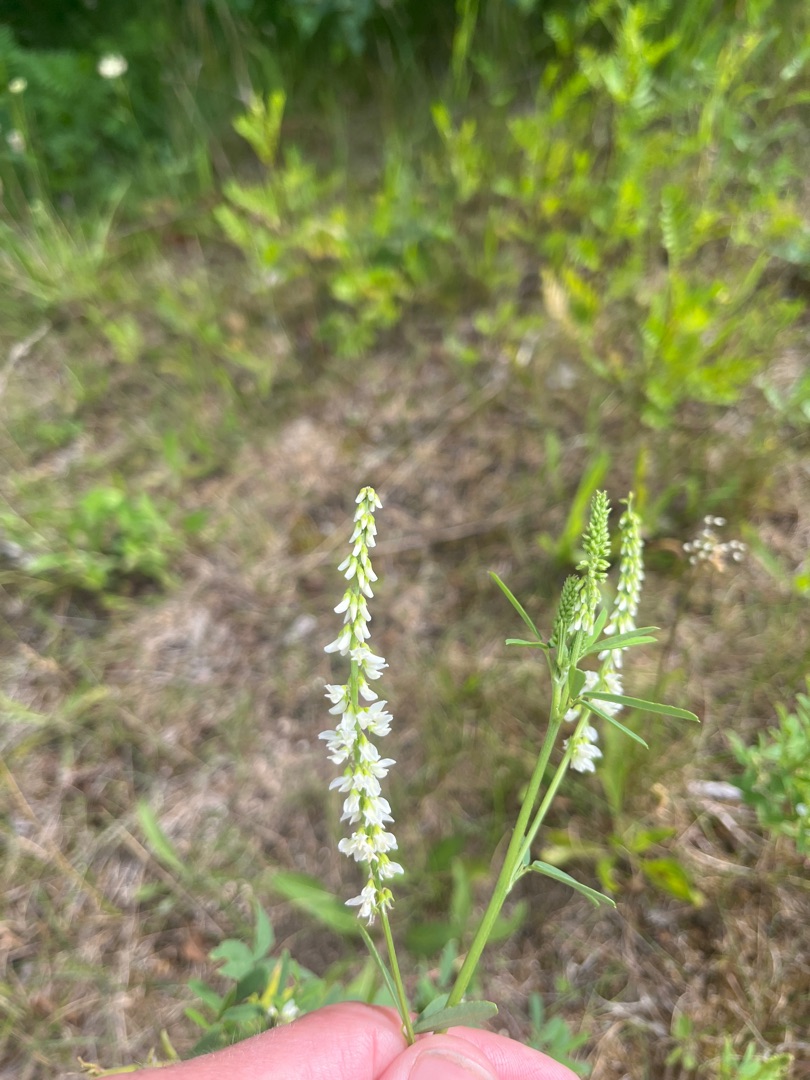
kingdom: Plantae
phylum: Tracheophyta
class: Magnoliopsida
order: Fabales
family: Fabaceae
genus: Melilotus
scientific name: Melilotus albus
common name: Hvid stenkløver
